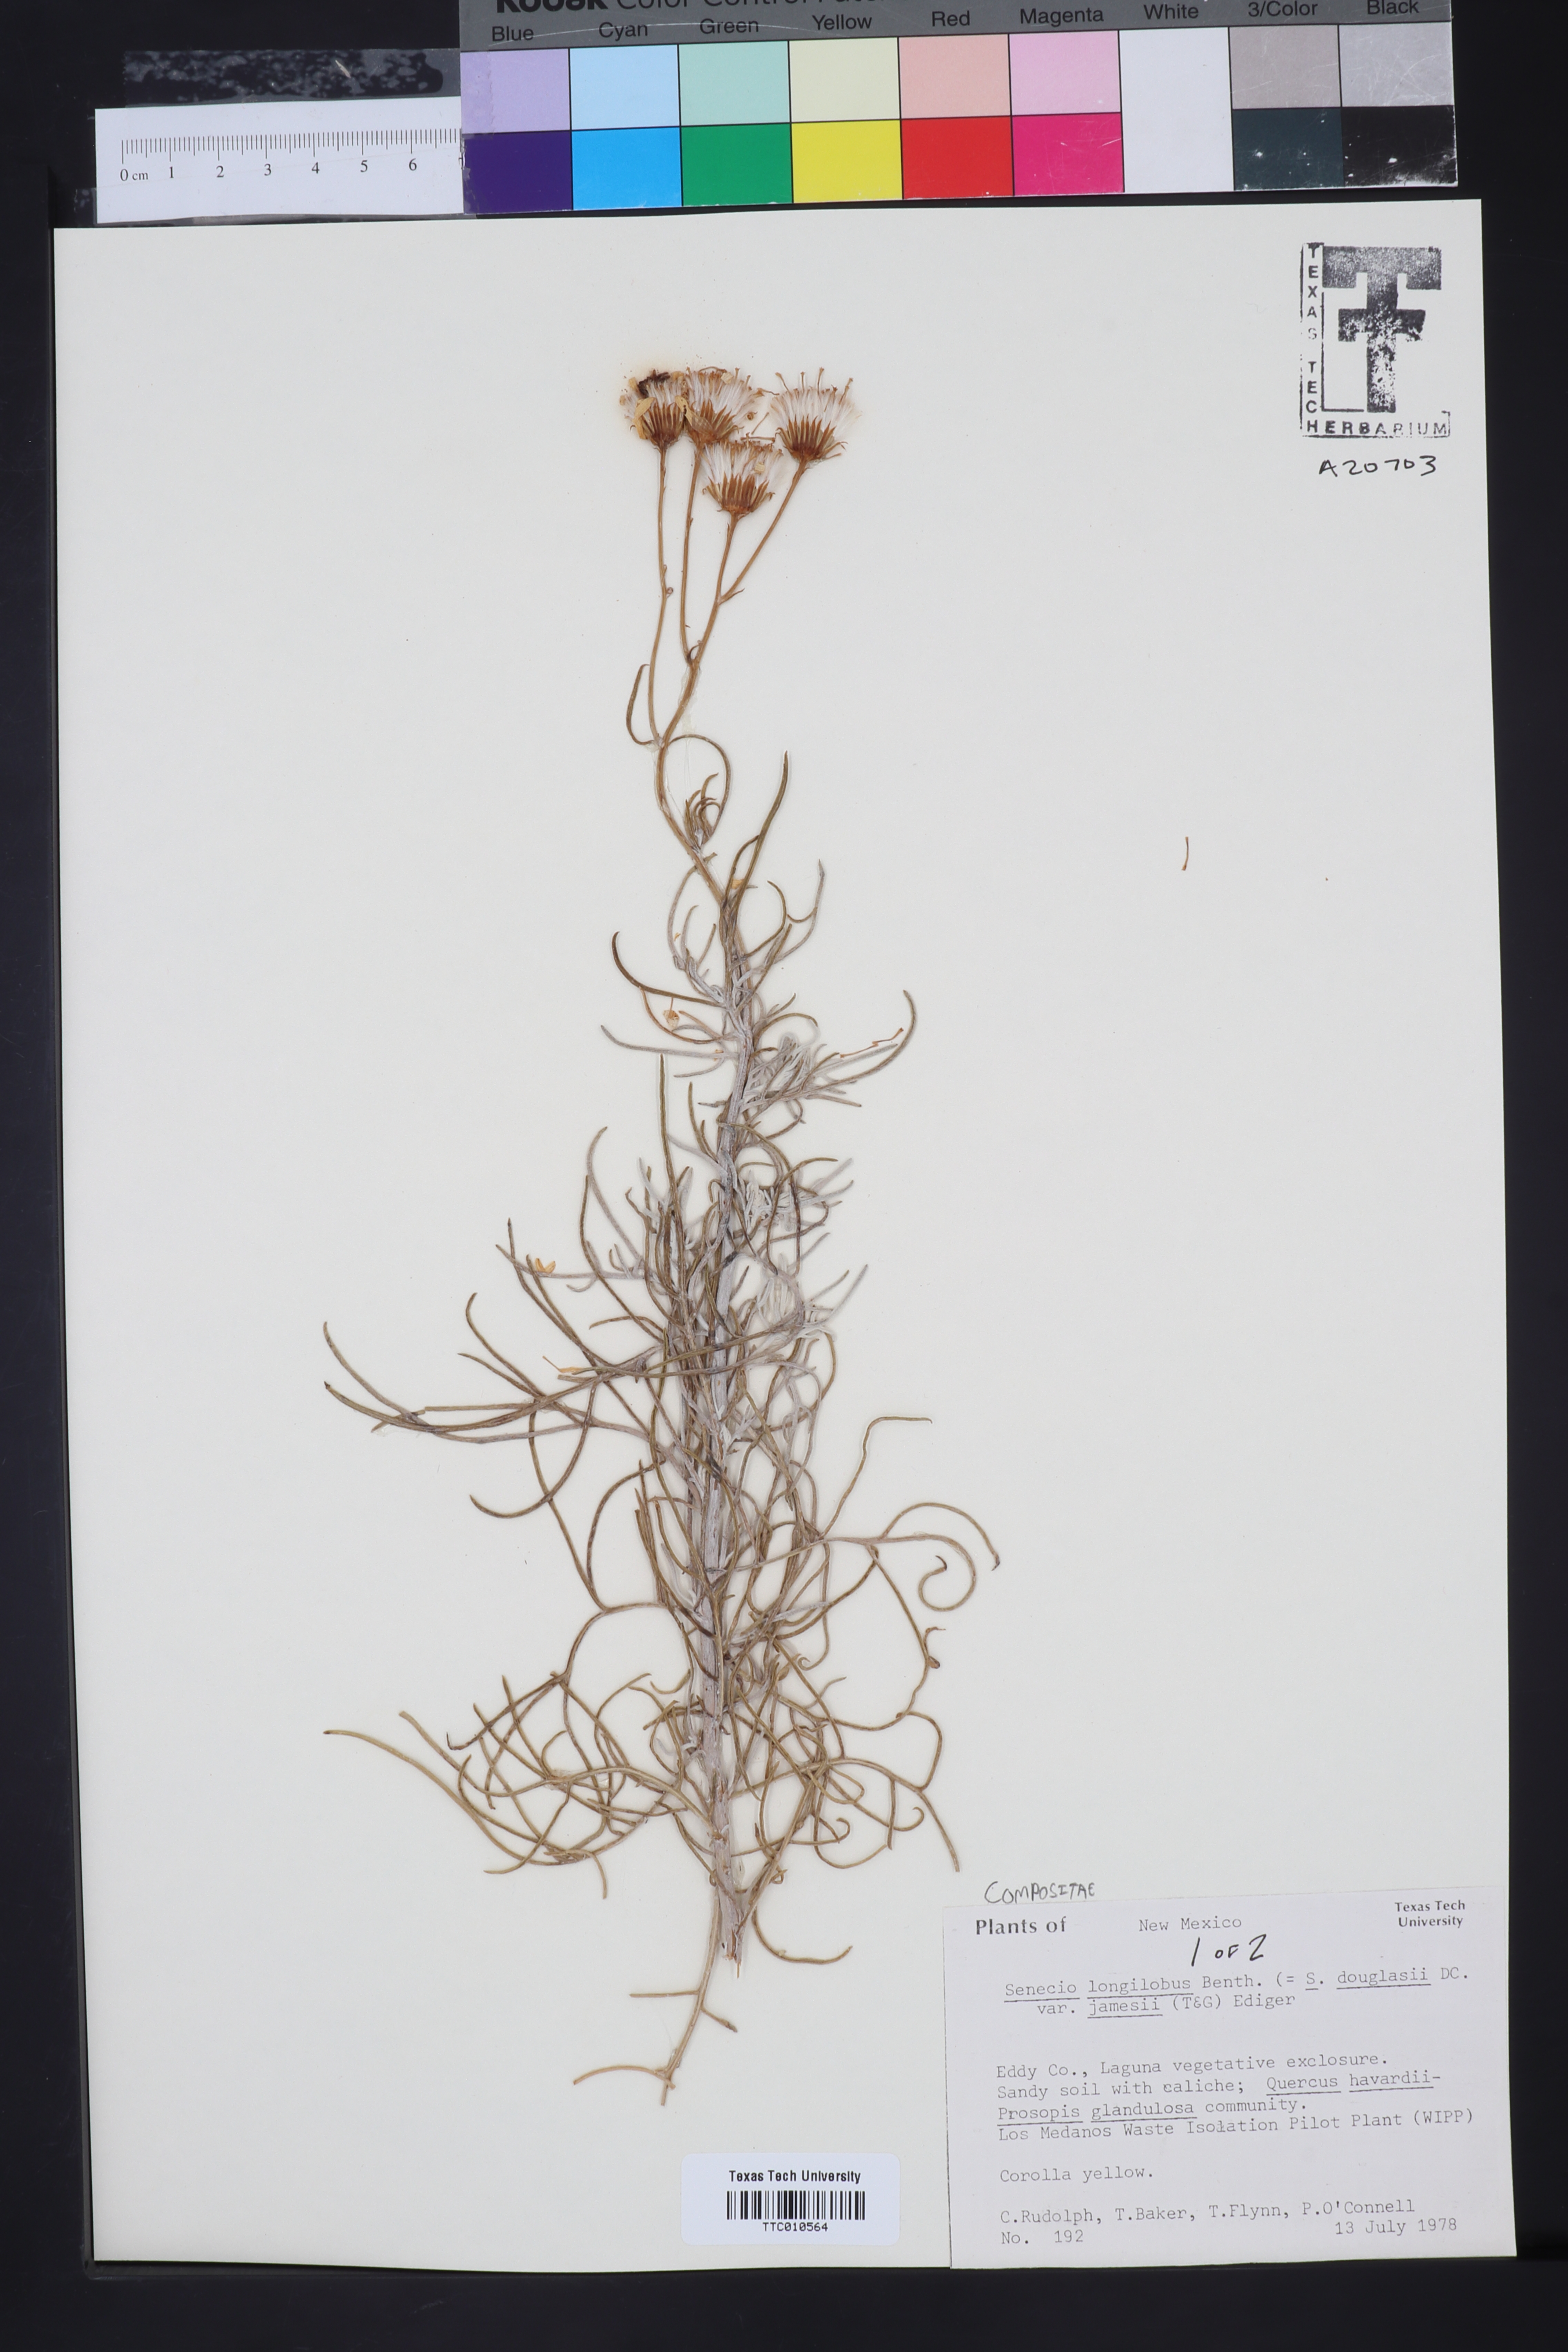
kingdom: Plantae
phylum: Tracheophyta
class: Magnoliopsida
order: Asterales
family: Asteraceae
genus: Senecio
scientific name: Senecio flaccidus
